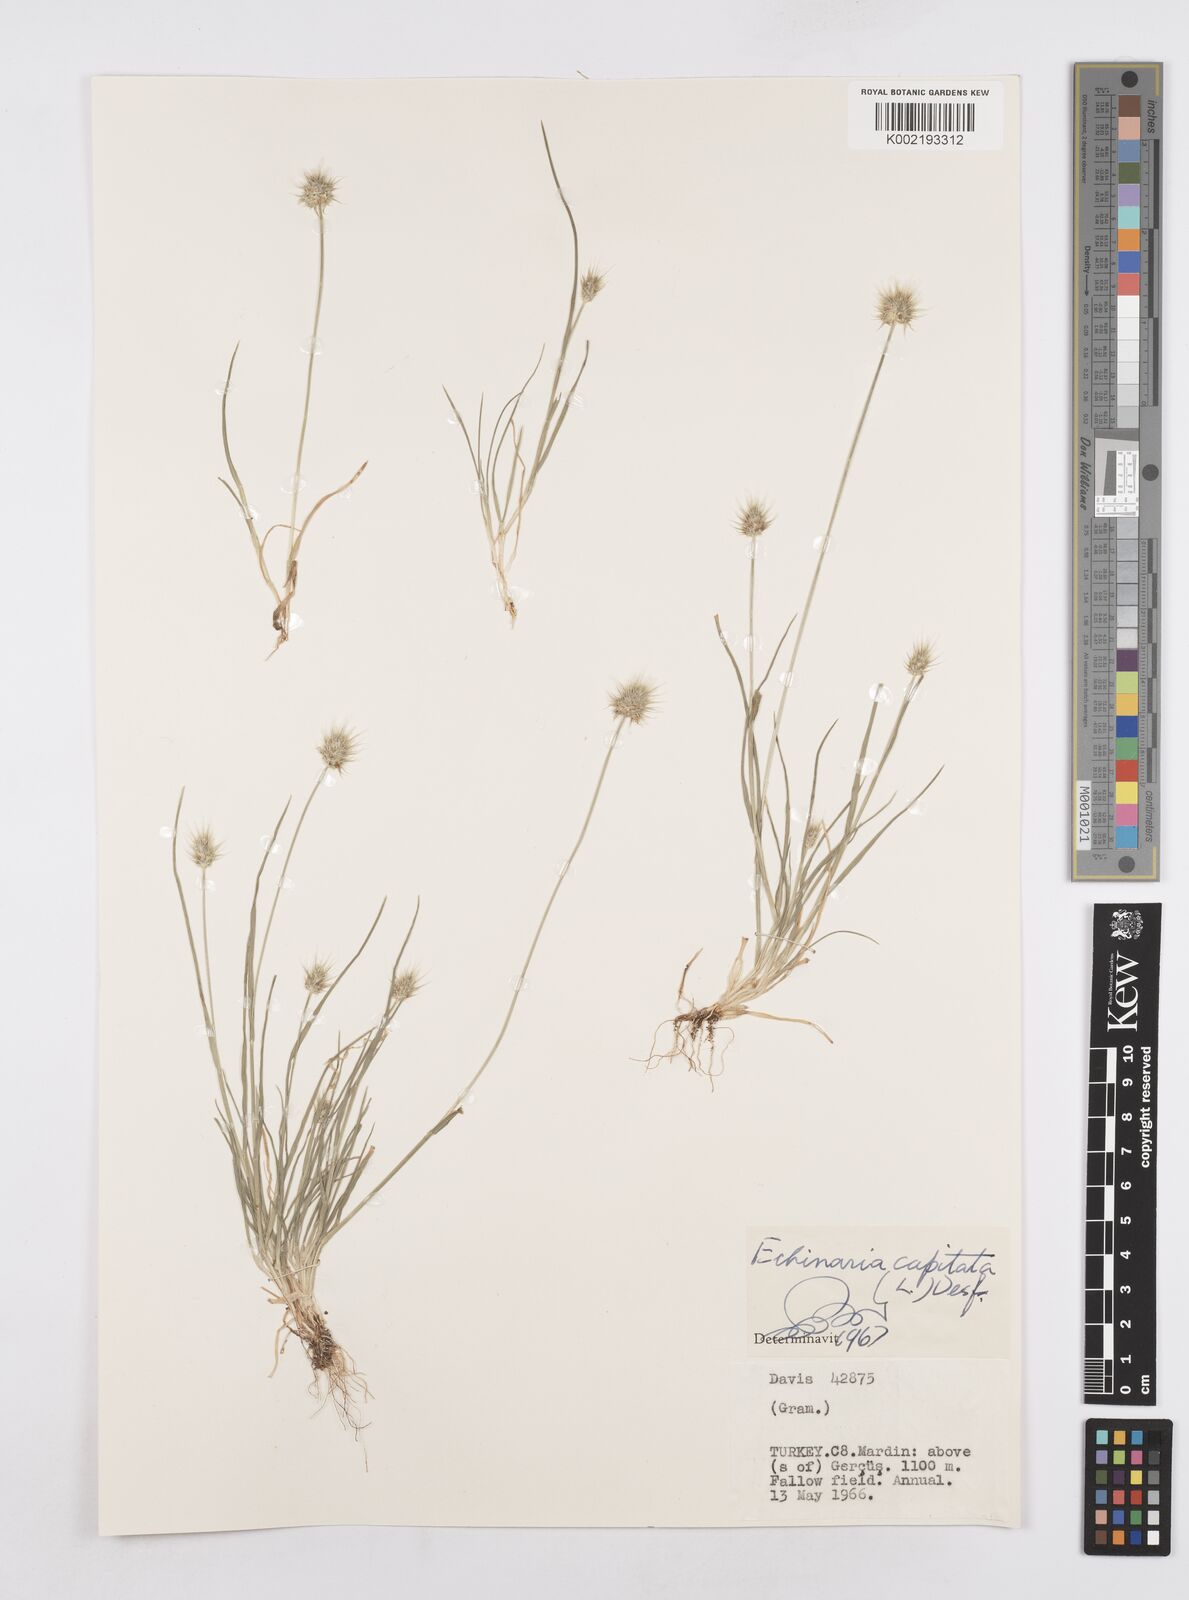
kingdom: Plantae
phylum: Tracheophyta
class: Liliopsida
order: Poales
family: Poaceae
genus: Echinaria
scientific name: Echinaria capitata
